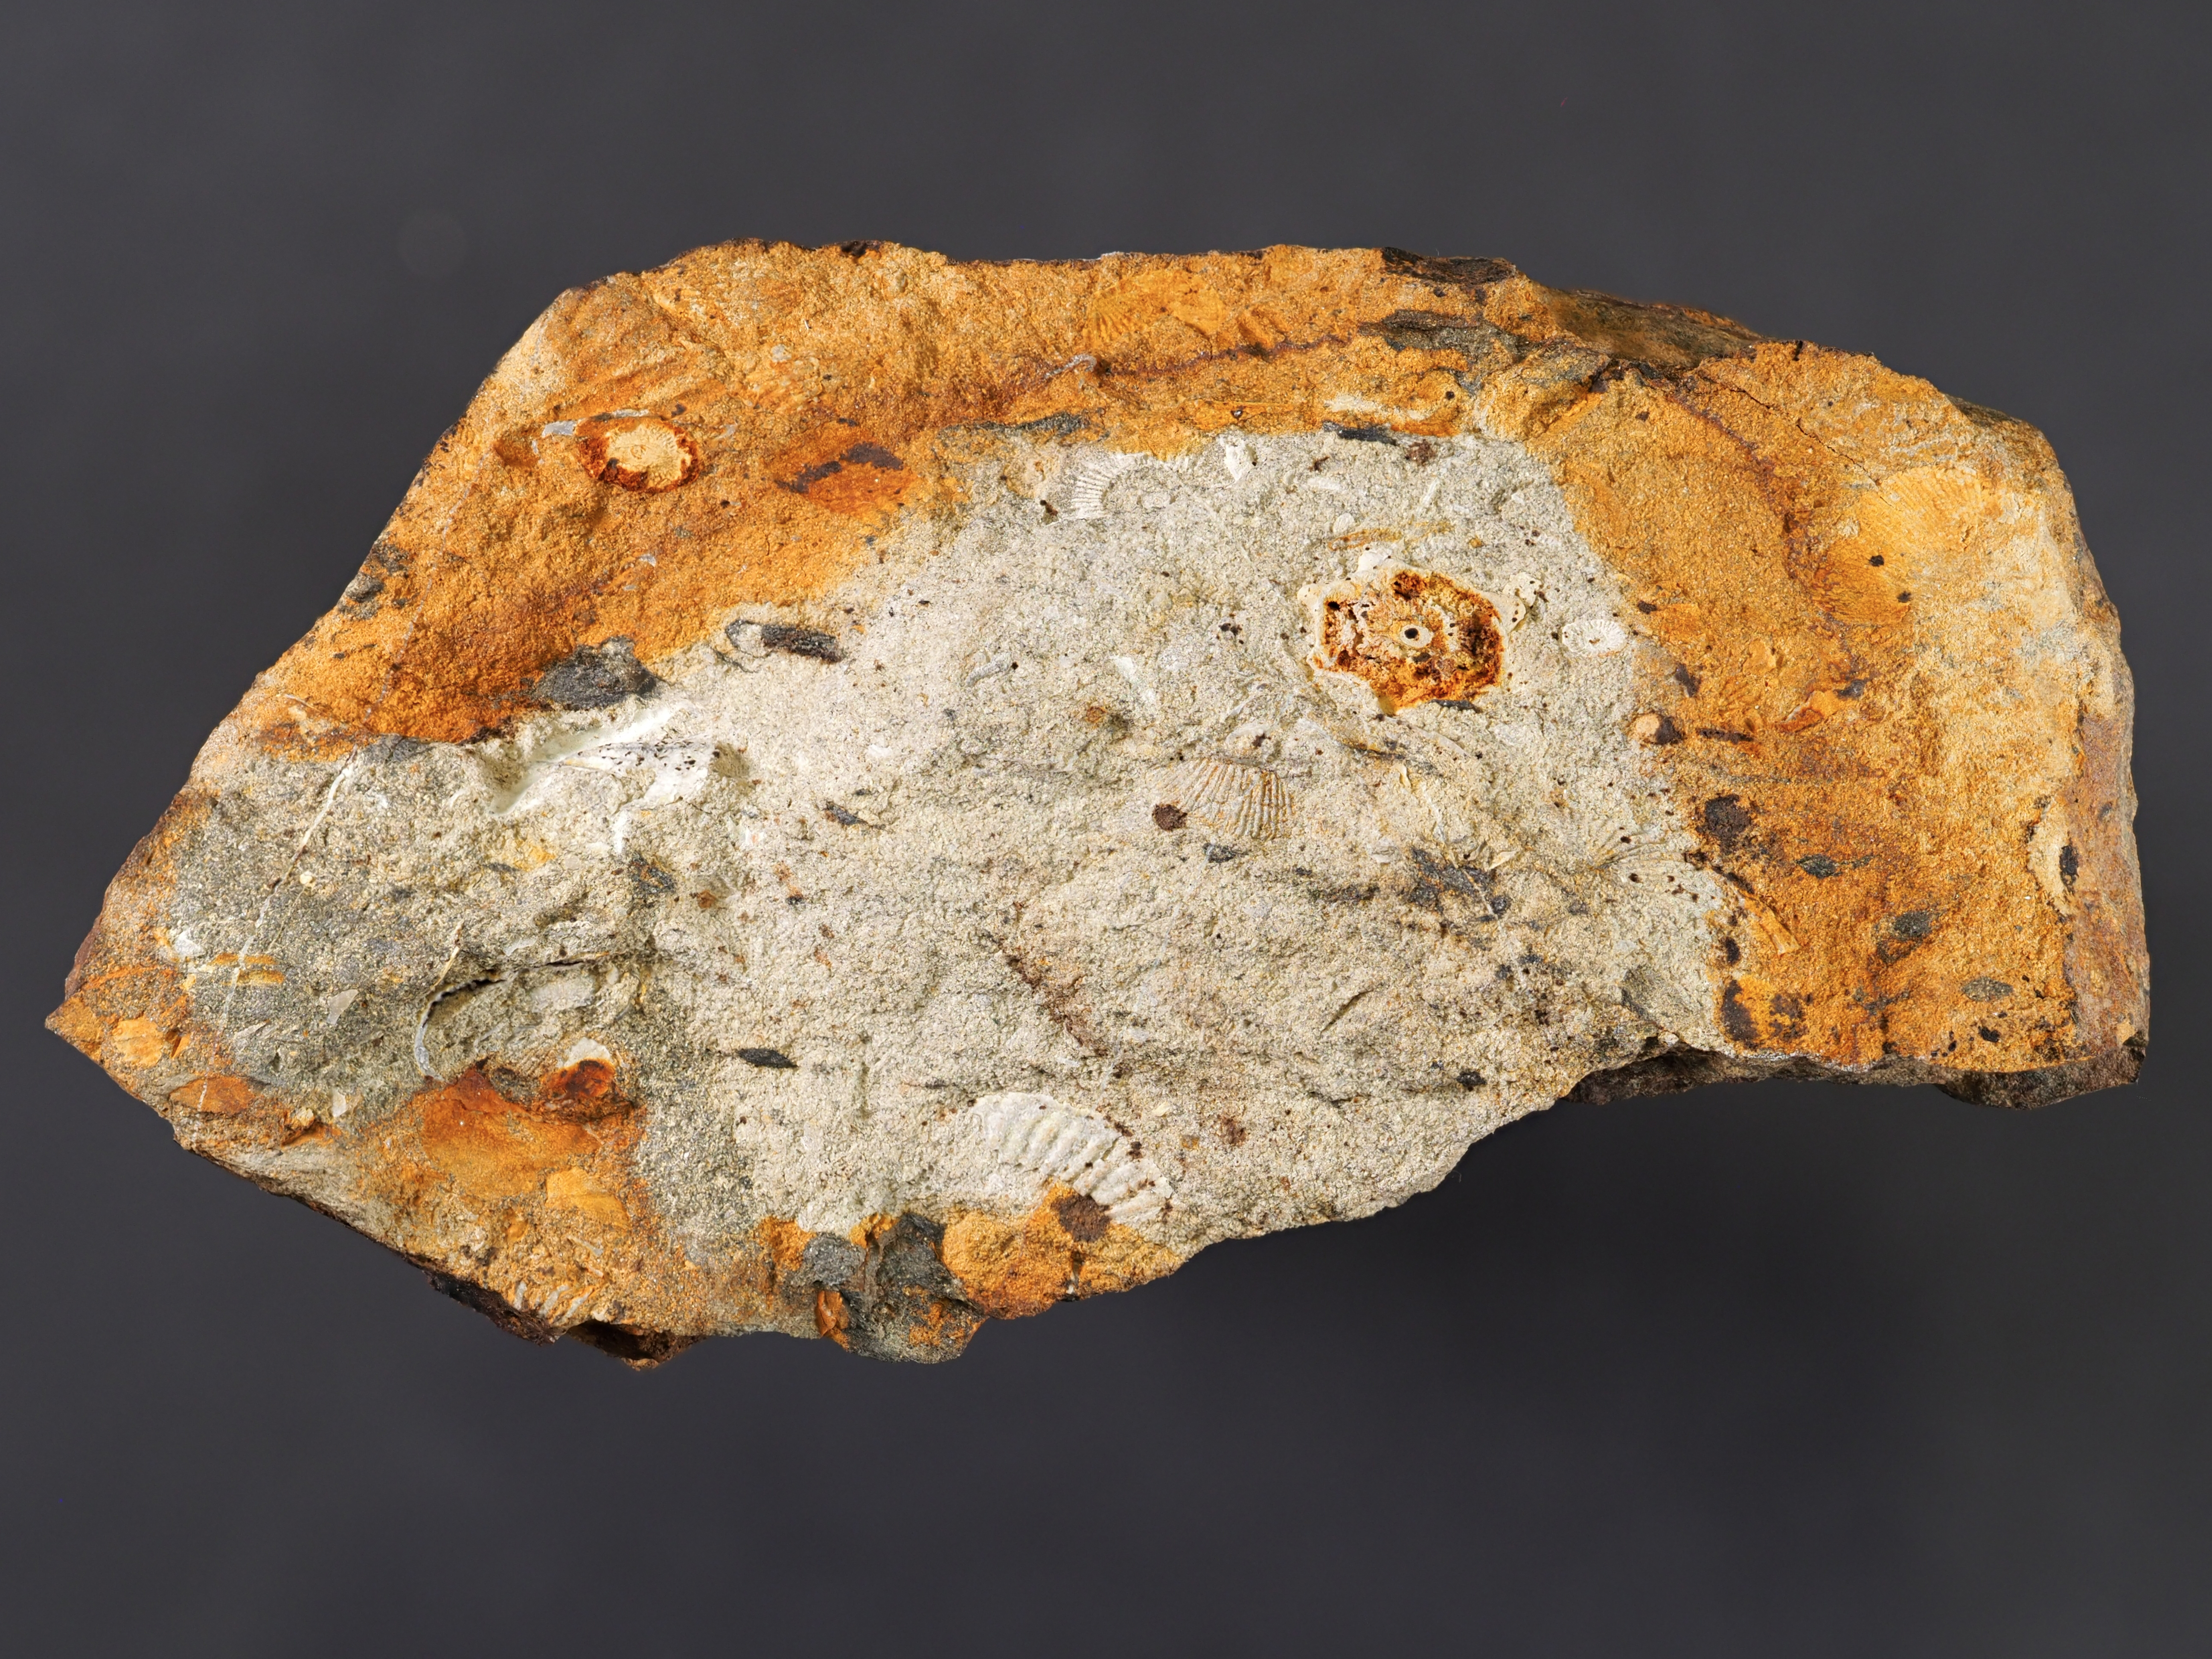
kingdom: Animalia
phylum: Brachiopoda
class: Rhynchonellata
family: Delthyrididae
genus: Euryspirifer
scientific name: Euryspirifer
